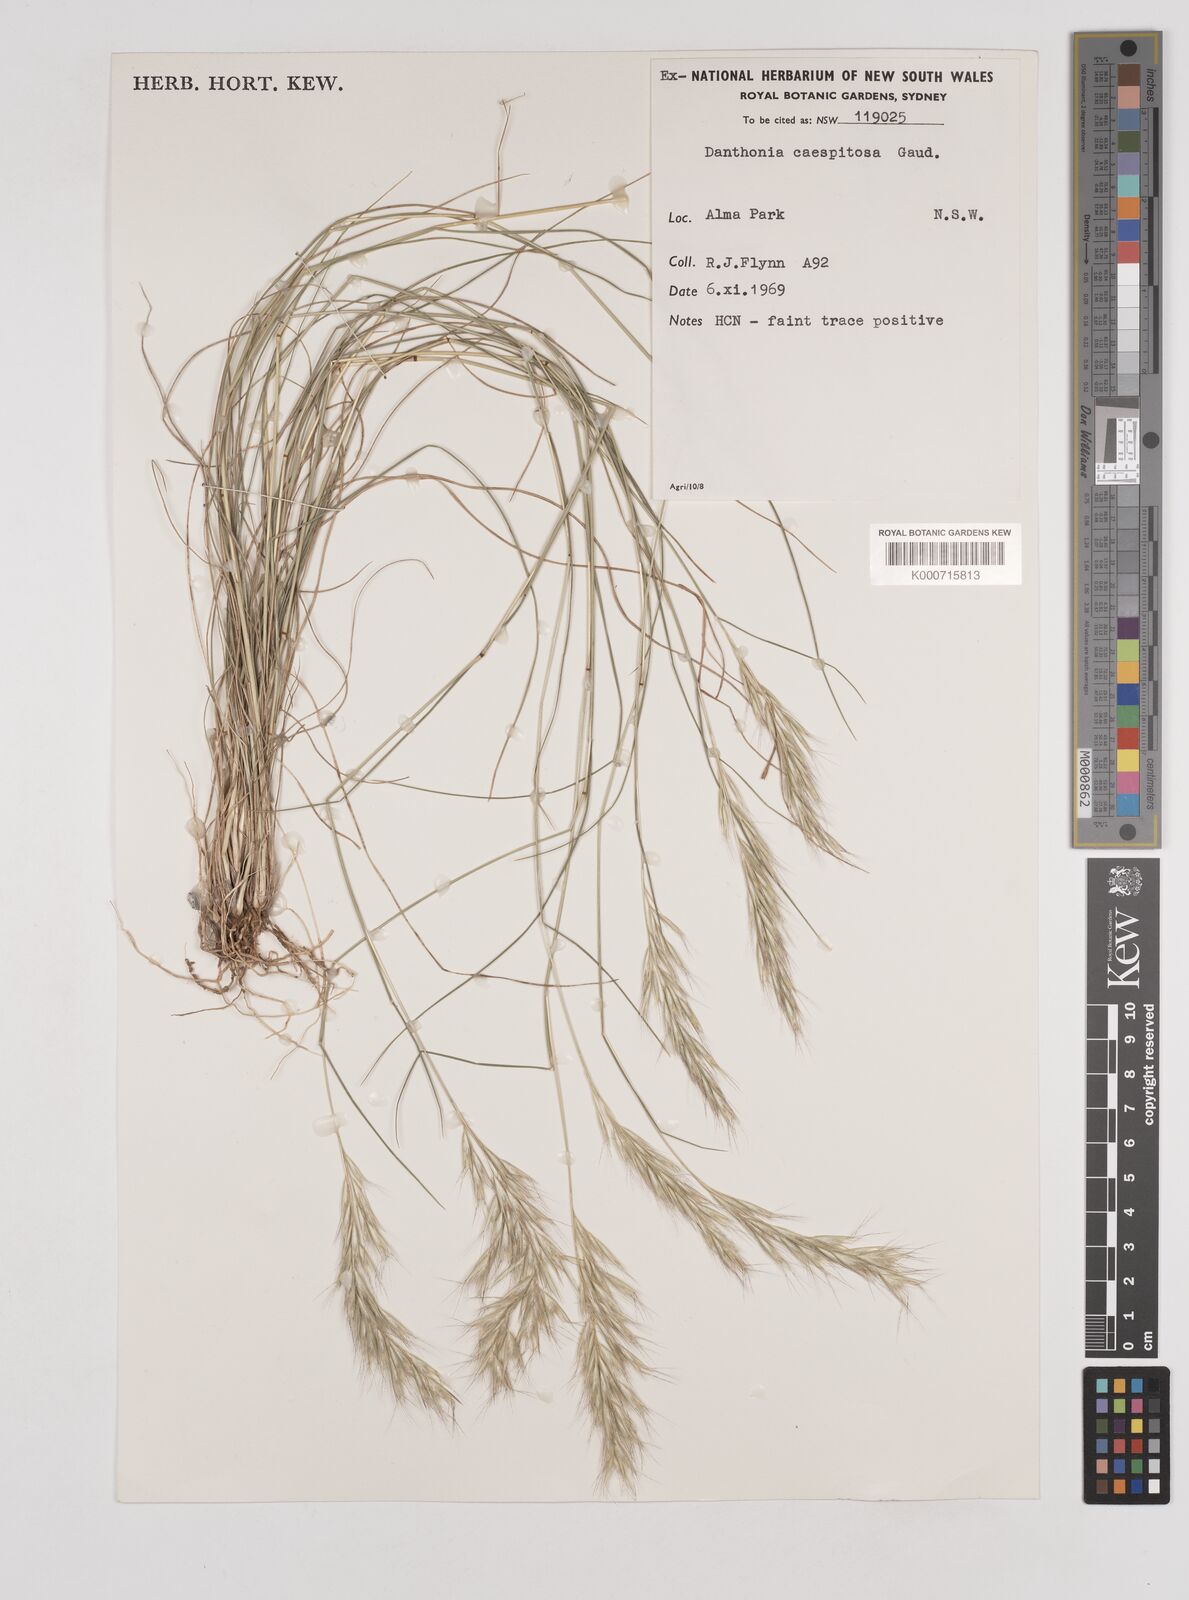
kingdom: Plantae
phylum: Tracheophyta
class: Liliopsida
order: Poales
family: Poaceae
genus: Rytidosperma
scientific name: Rytidosperma caespitosum
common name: Tufted wallaby grass
